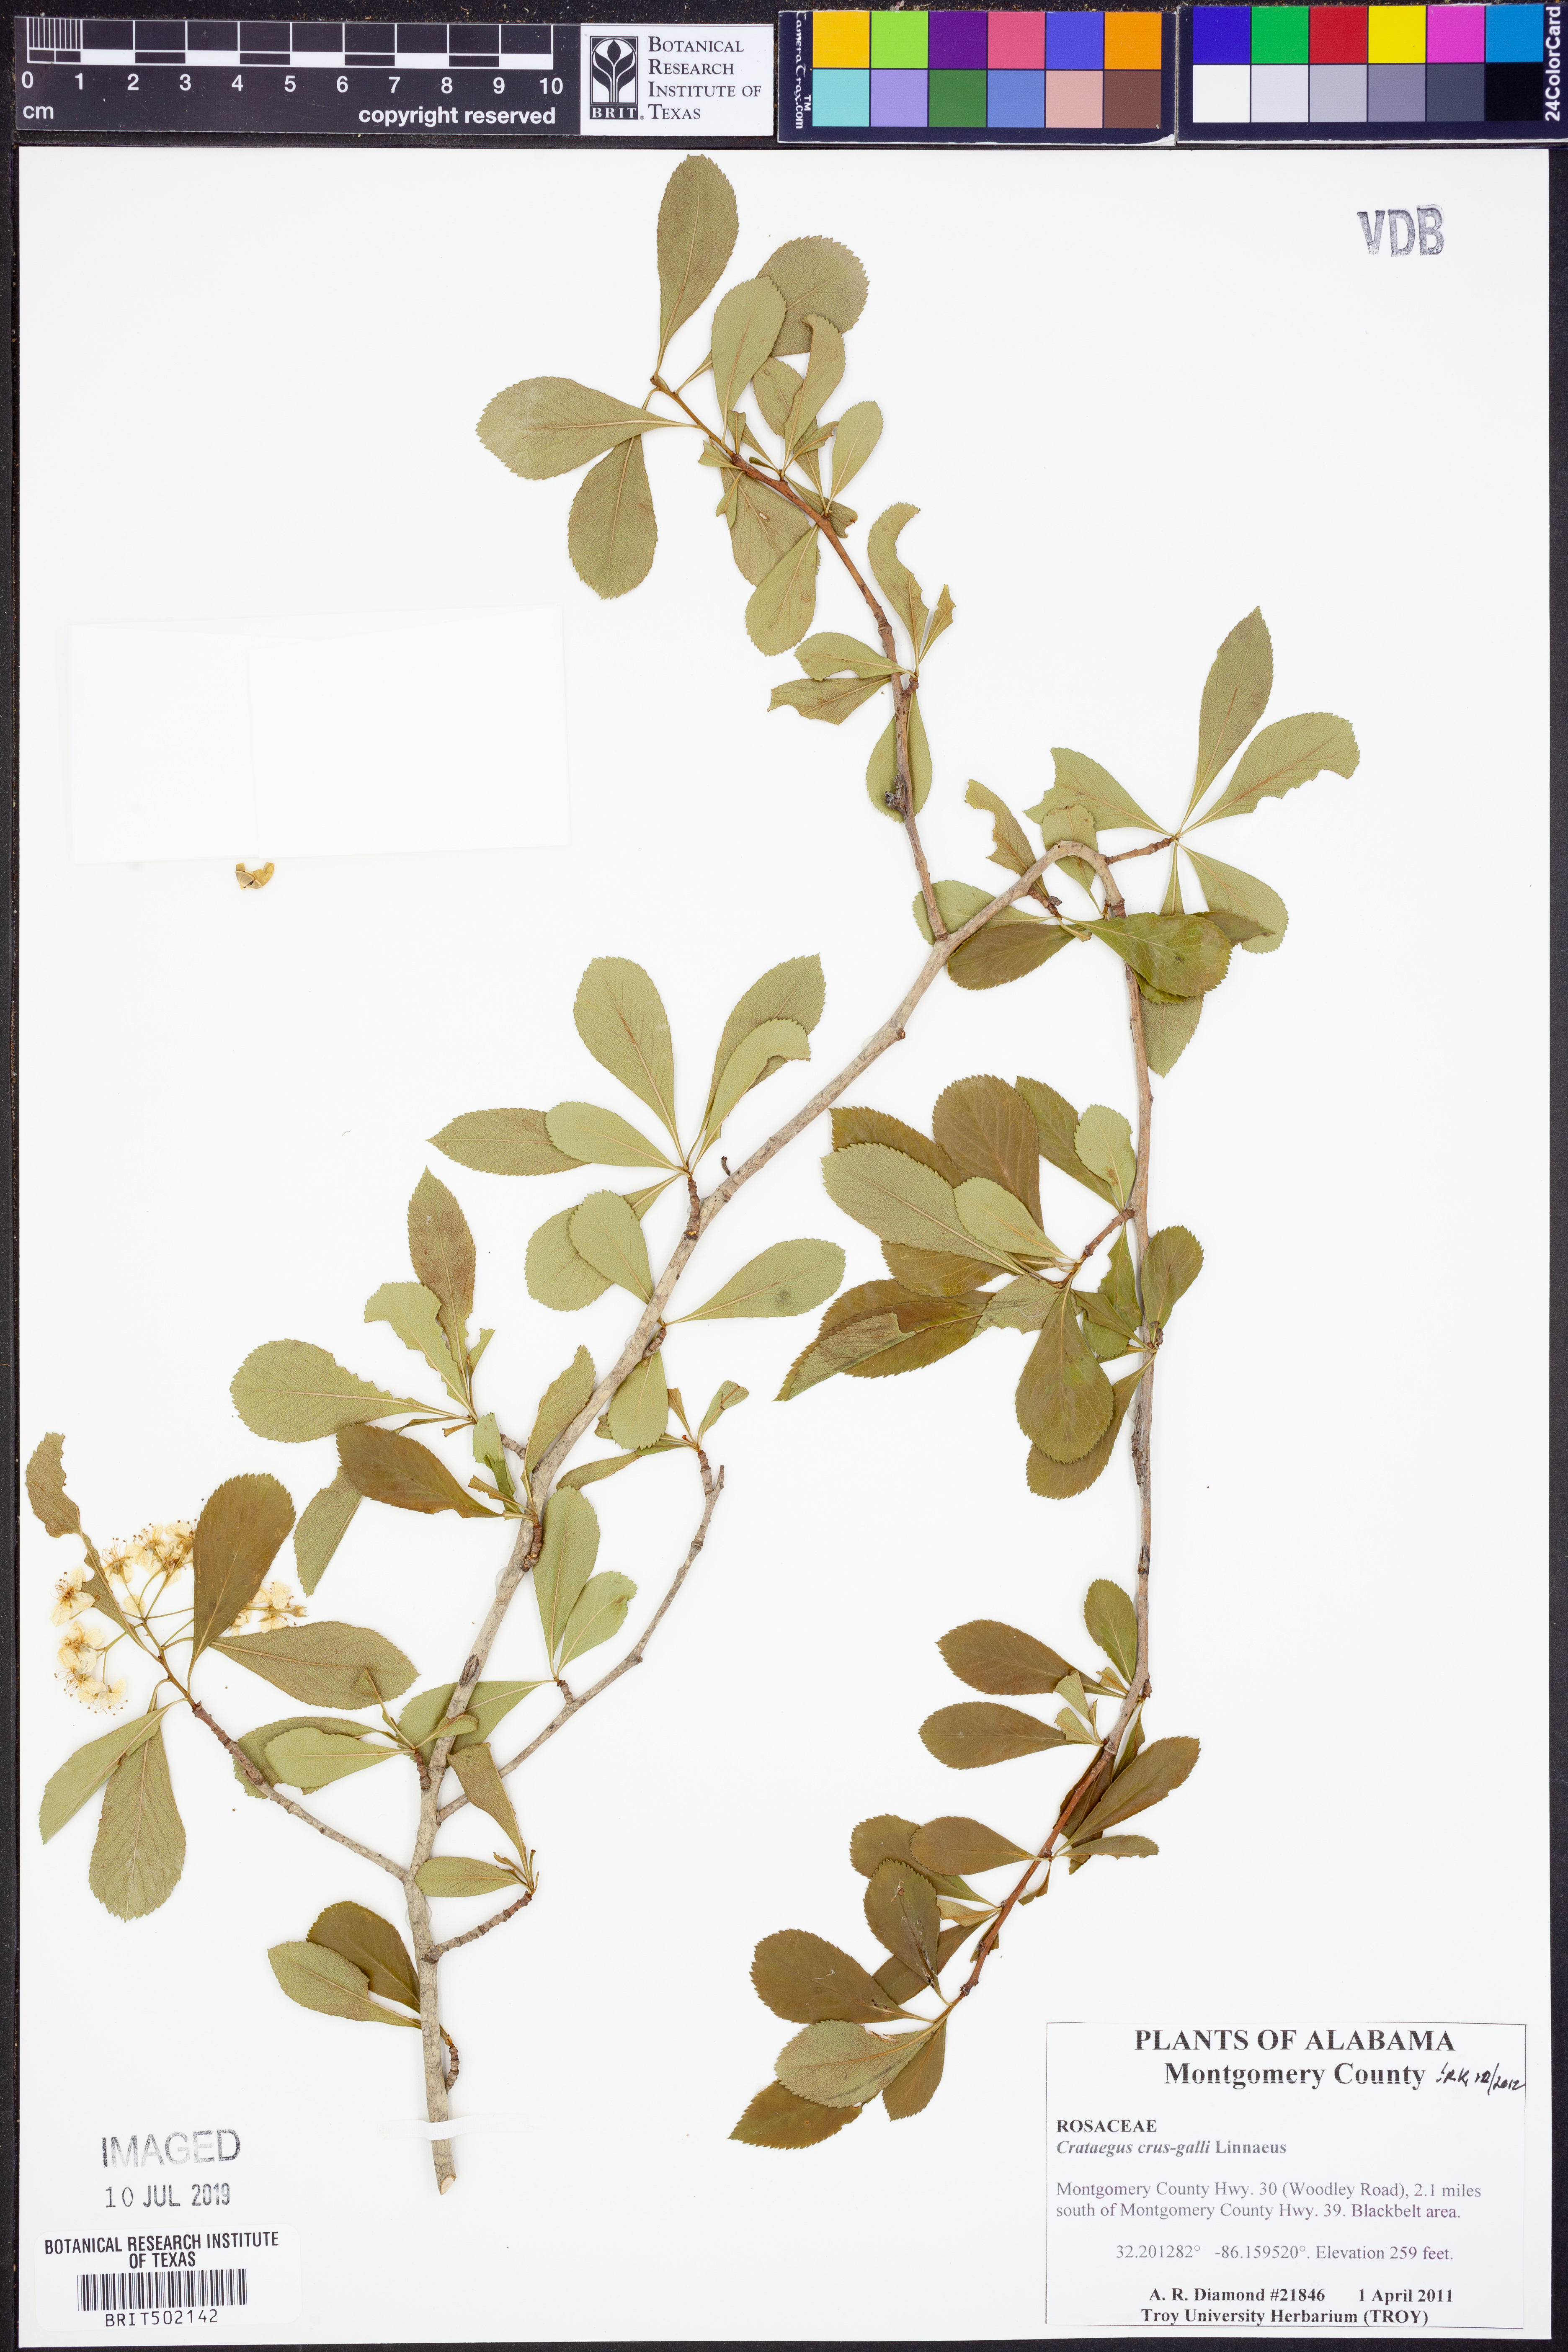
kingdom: Plantae
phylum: Tracheophyta
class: Magnoliopsida
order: Rosales
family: Rosaceae
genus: Crataegus
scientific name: Crataegus crus-galli
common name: Cockspurthorn
